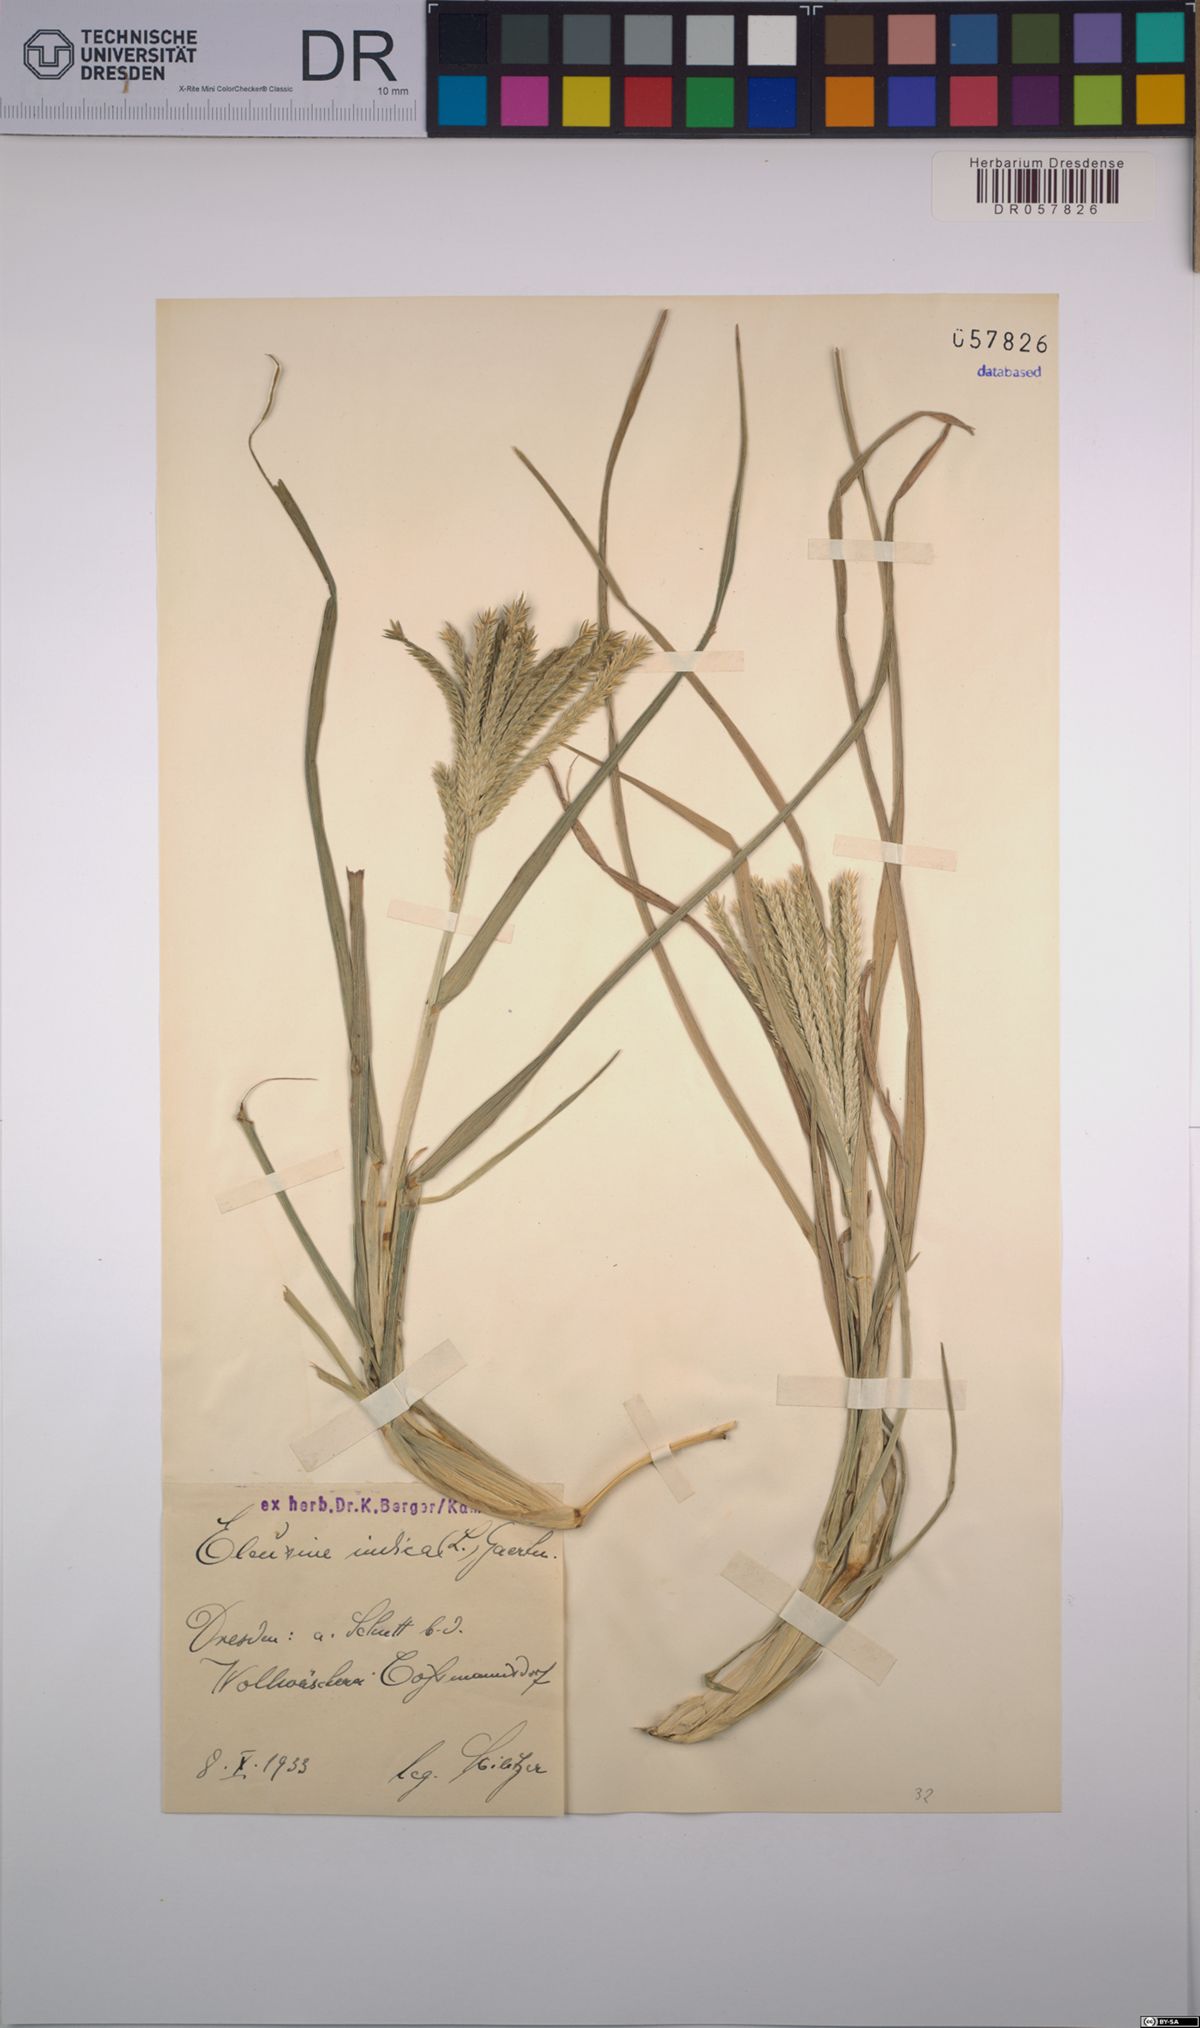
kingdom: Plantae
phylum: Tracheophyta
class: Liliopsida
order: Poales
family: Poaceae
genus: Eleusine
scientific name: Eleusine indica
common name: Yard-grass
